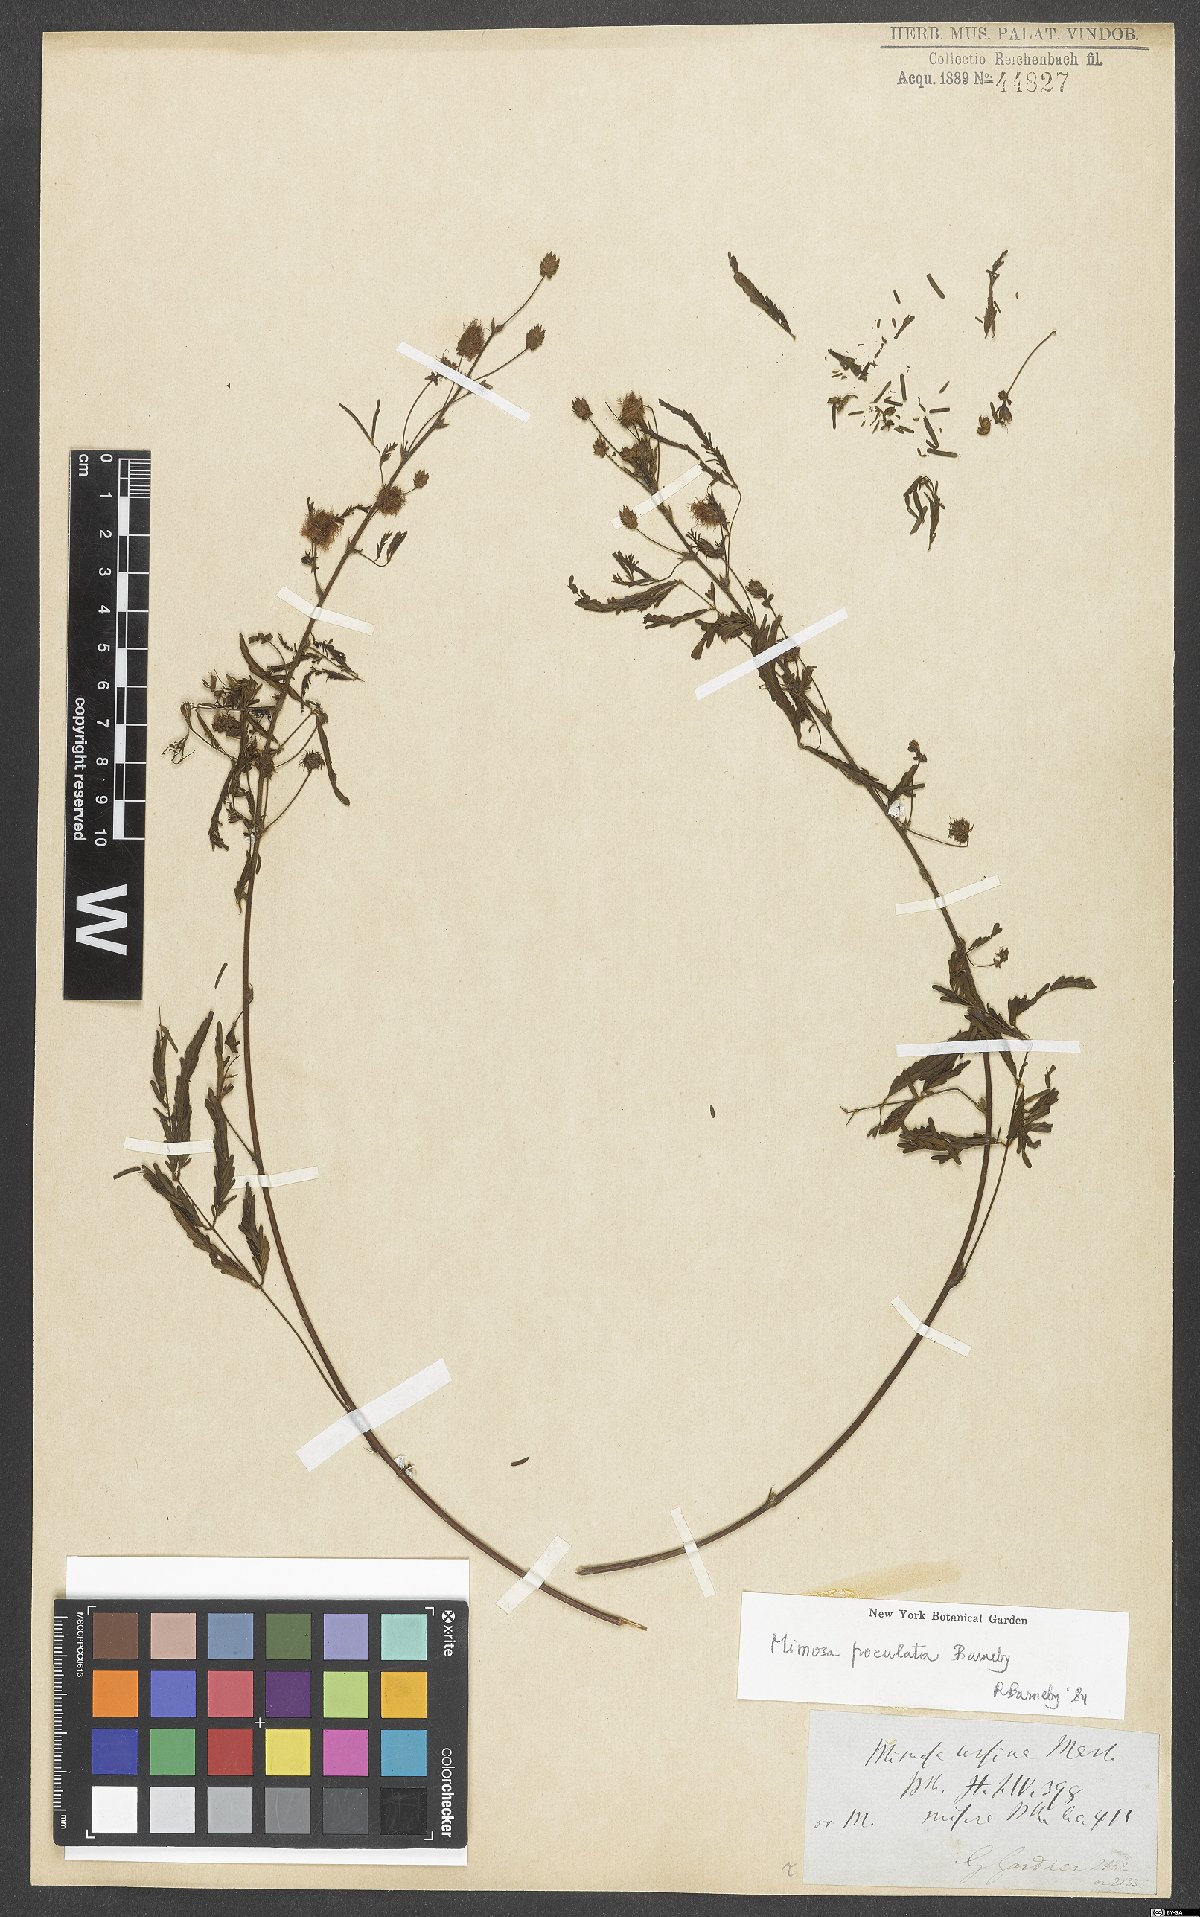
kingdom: Plantae
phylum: Tracheophyta
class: Magnoliopsida
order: Fabales
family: Fabaceae
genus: Mimosa
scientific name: Mimosa poculata
